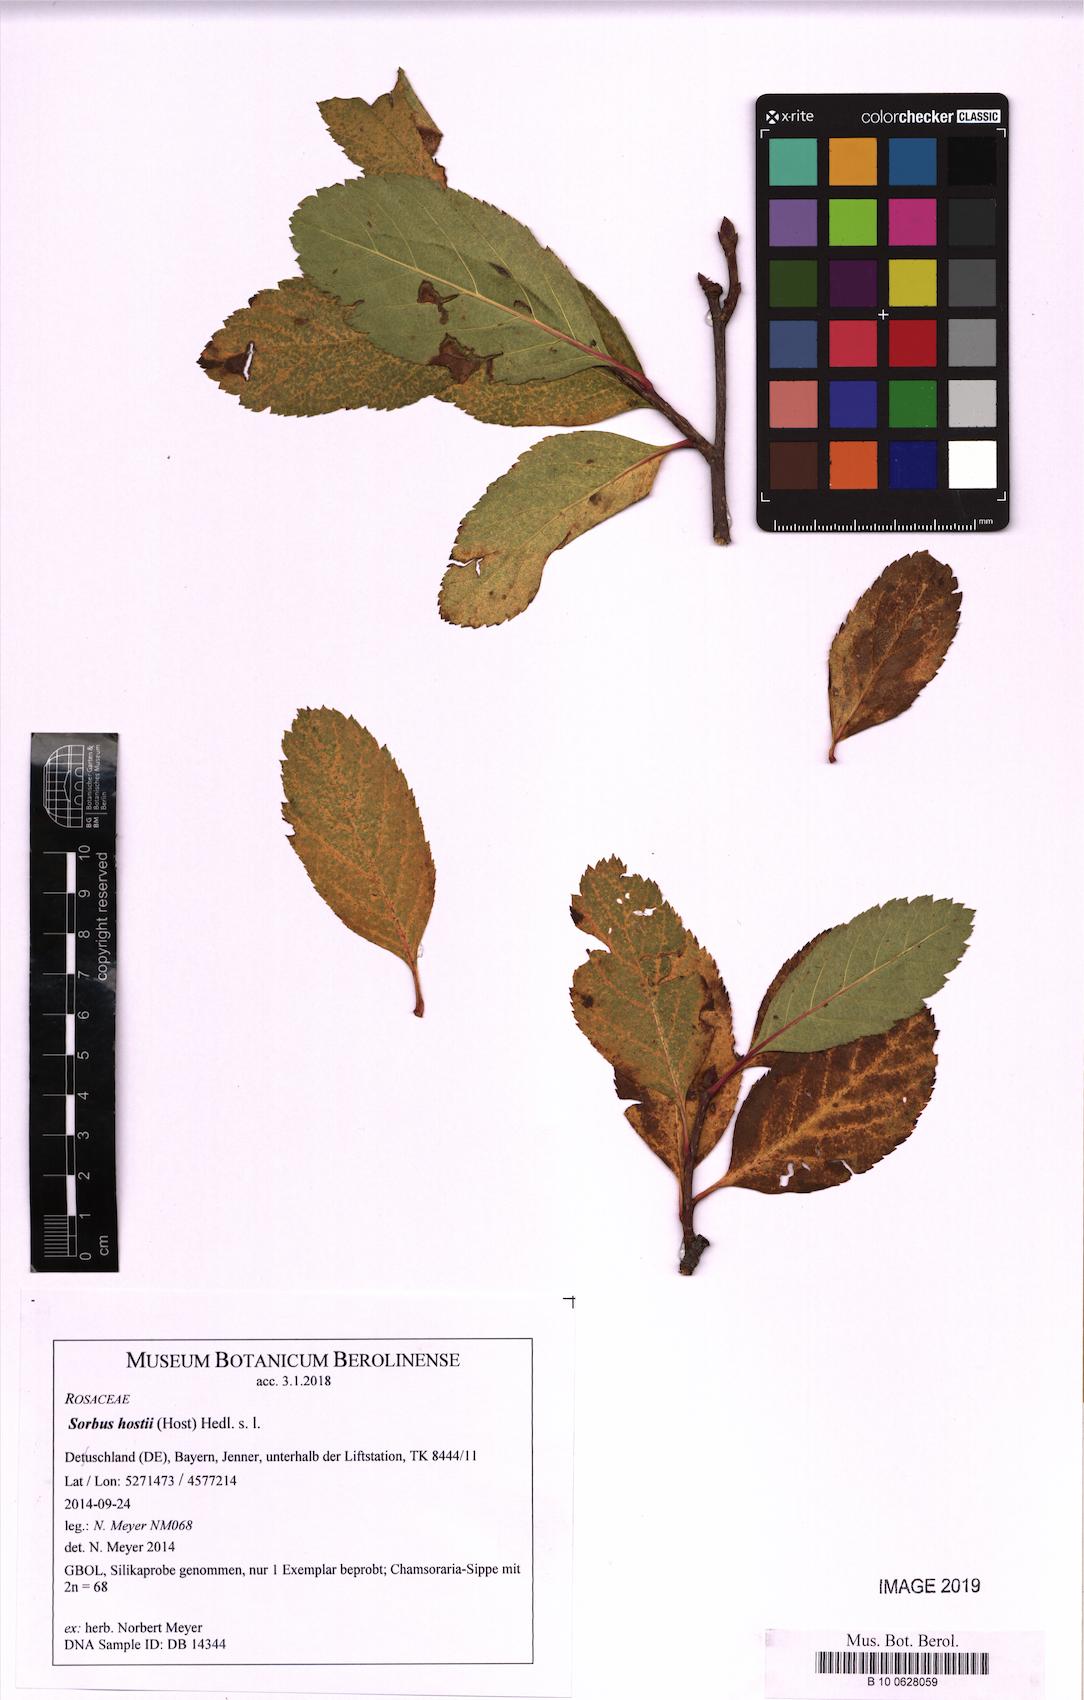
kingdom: Plantae
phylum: Tracheophyta
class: Magnoliopsida
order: Rosales
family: Rosaceae
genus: Sorbus
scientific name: Sorbus hostii
